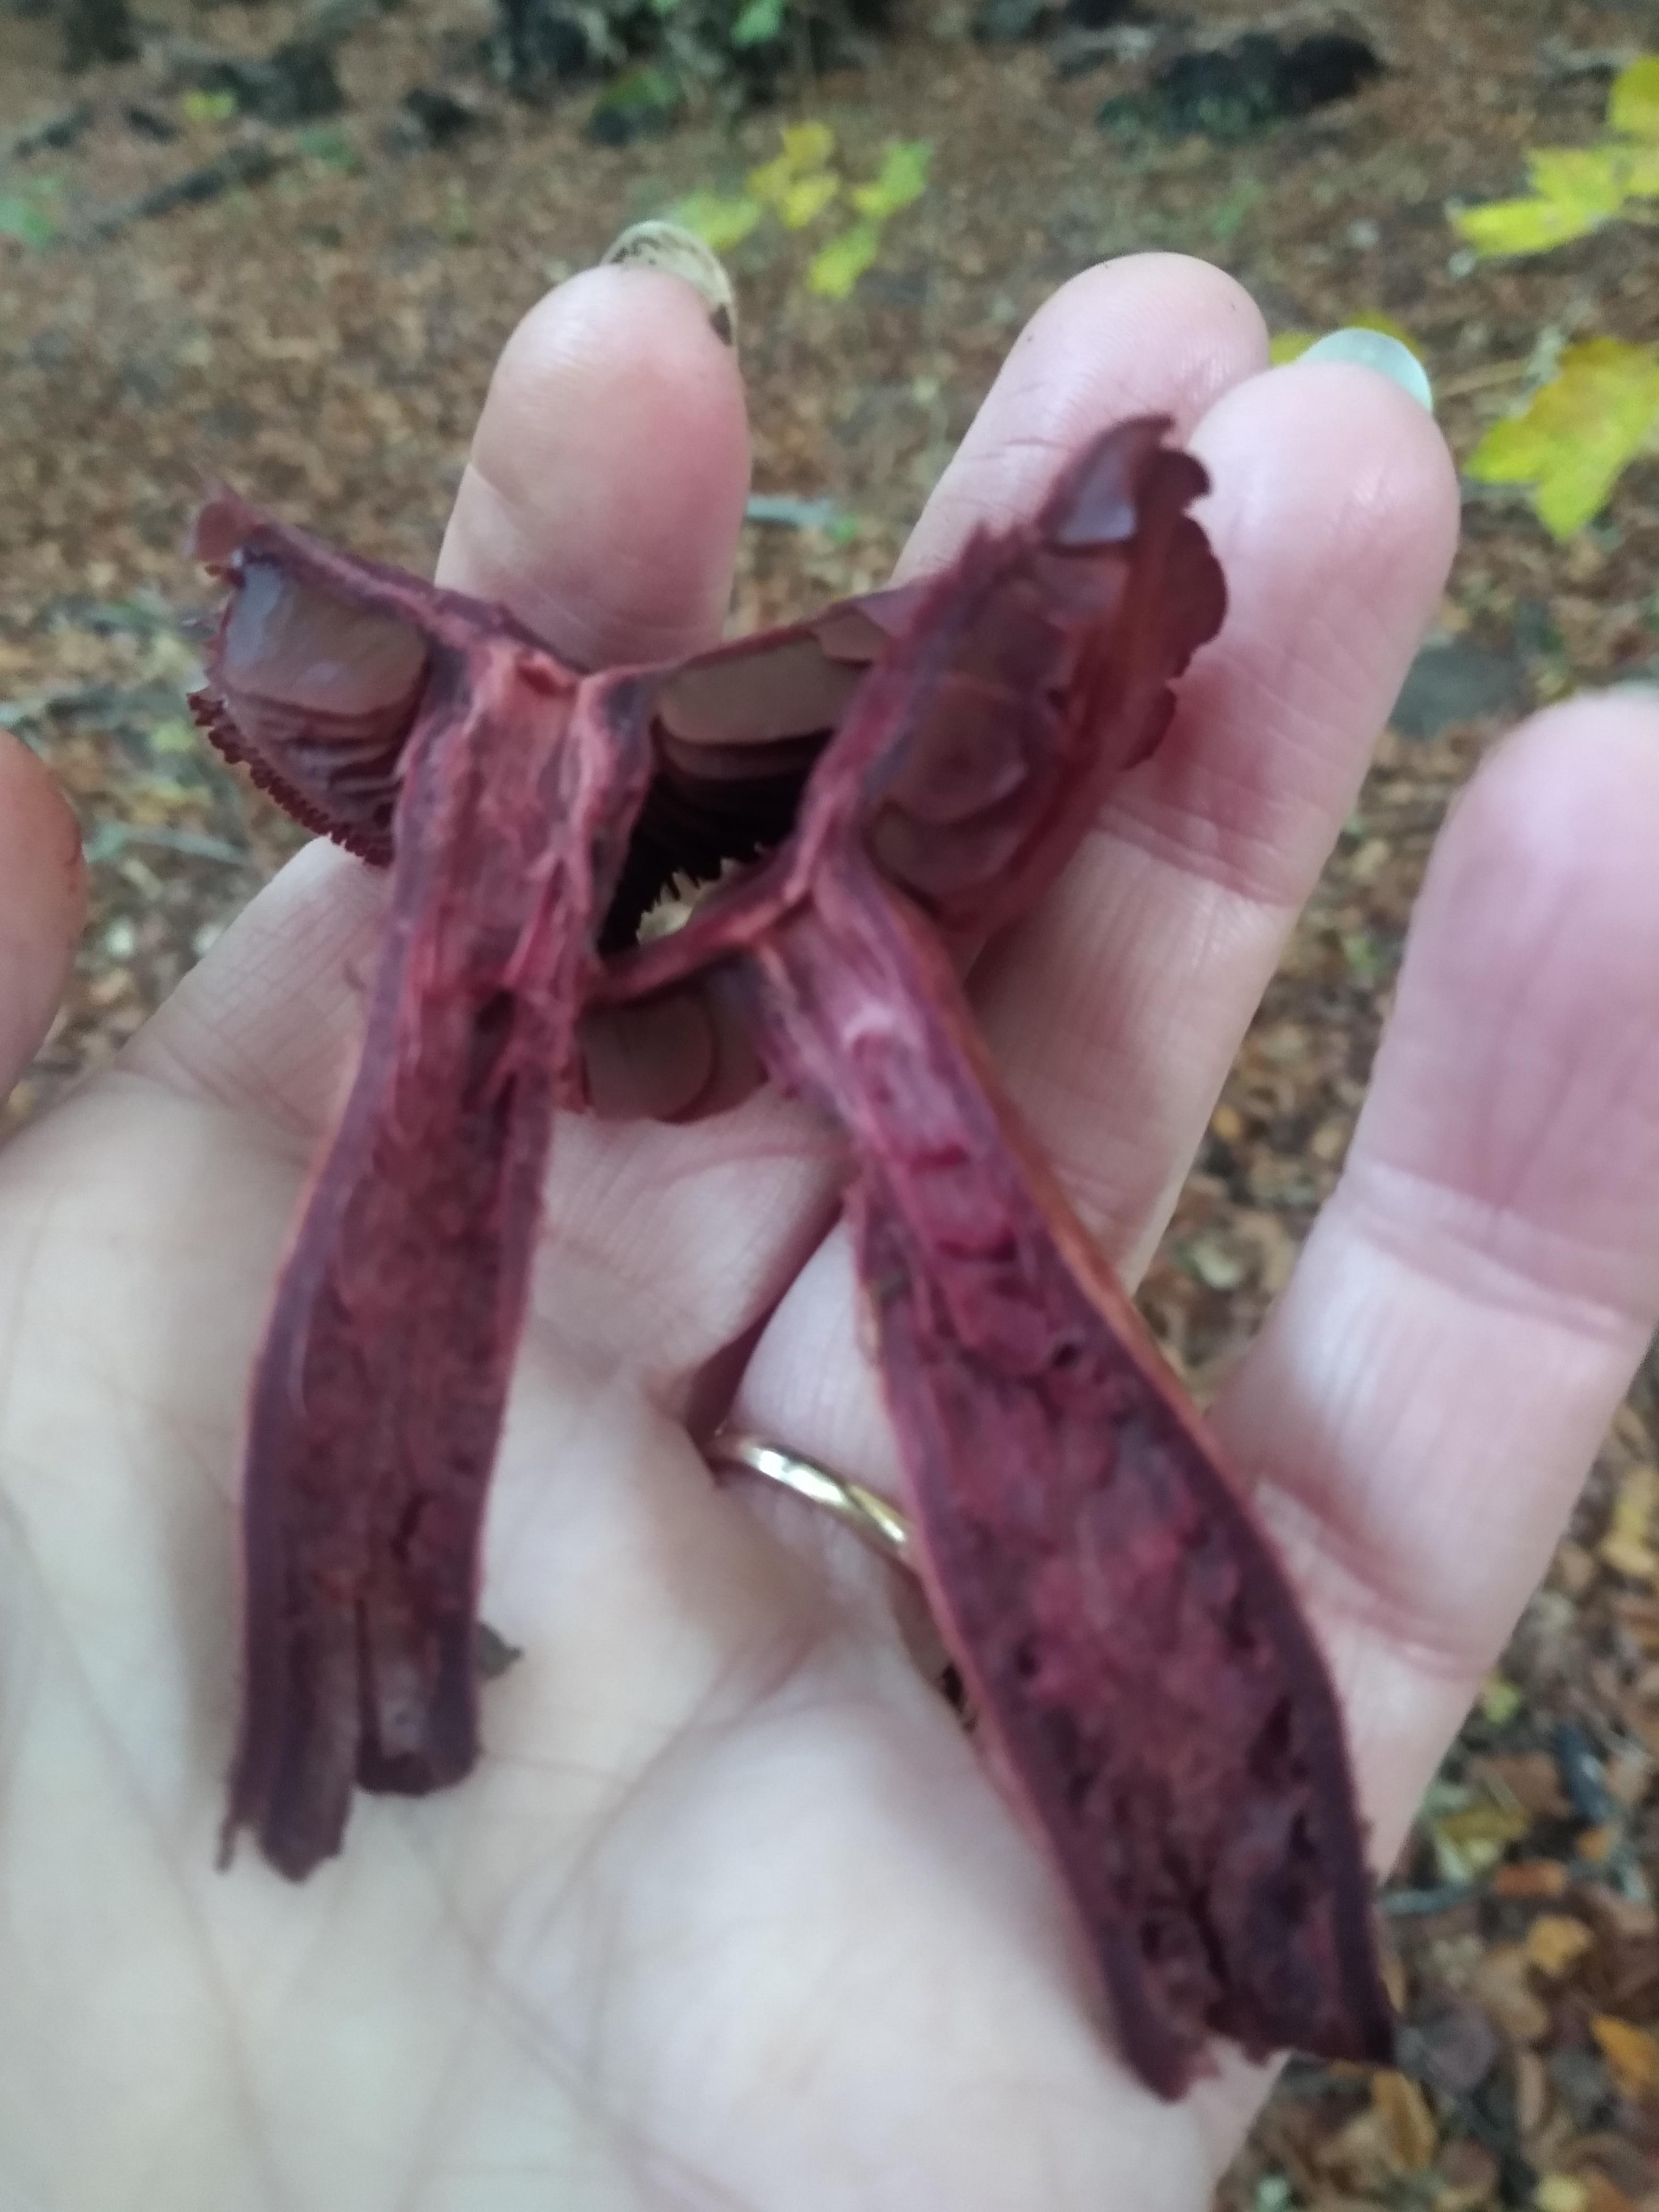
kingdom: Fungi
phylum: Basidiomycota
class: Agaricomycetes
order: Agaricales
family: Cortinariaceae
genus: Cortinarius
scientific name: Cortinarius sanguineus
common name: Bloodred webcap
